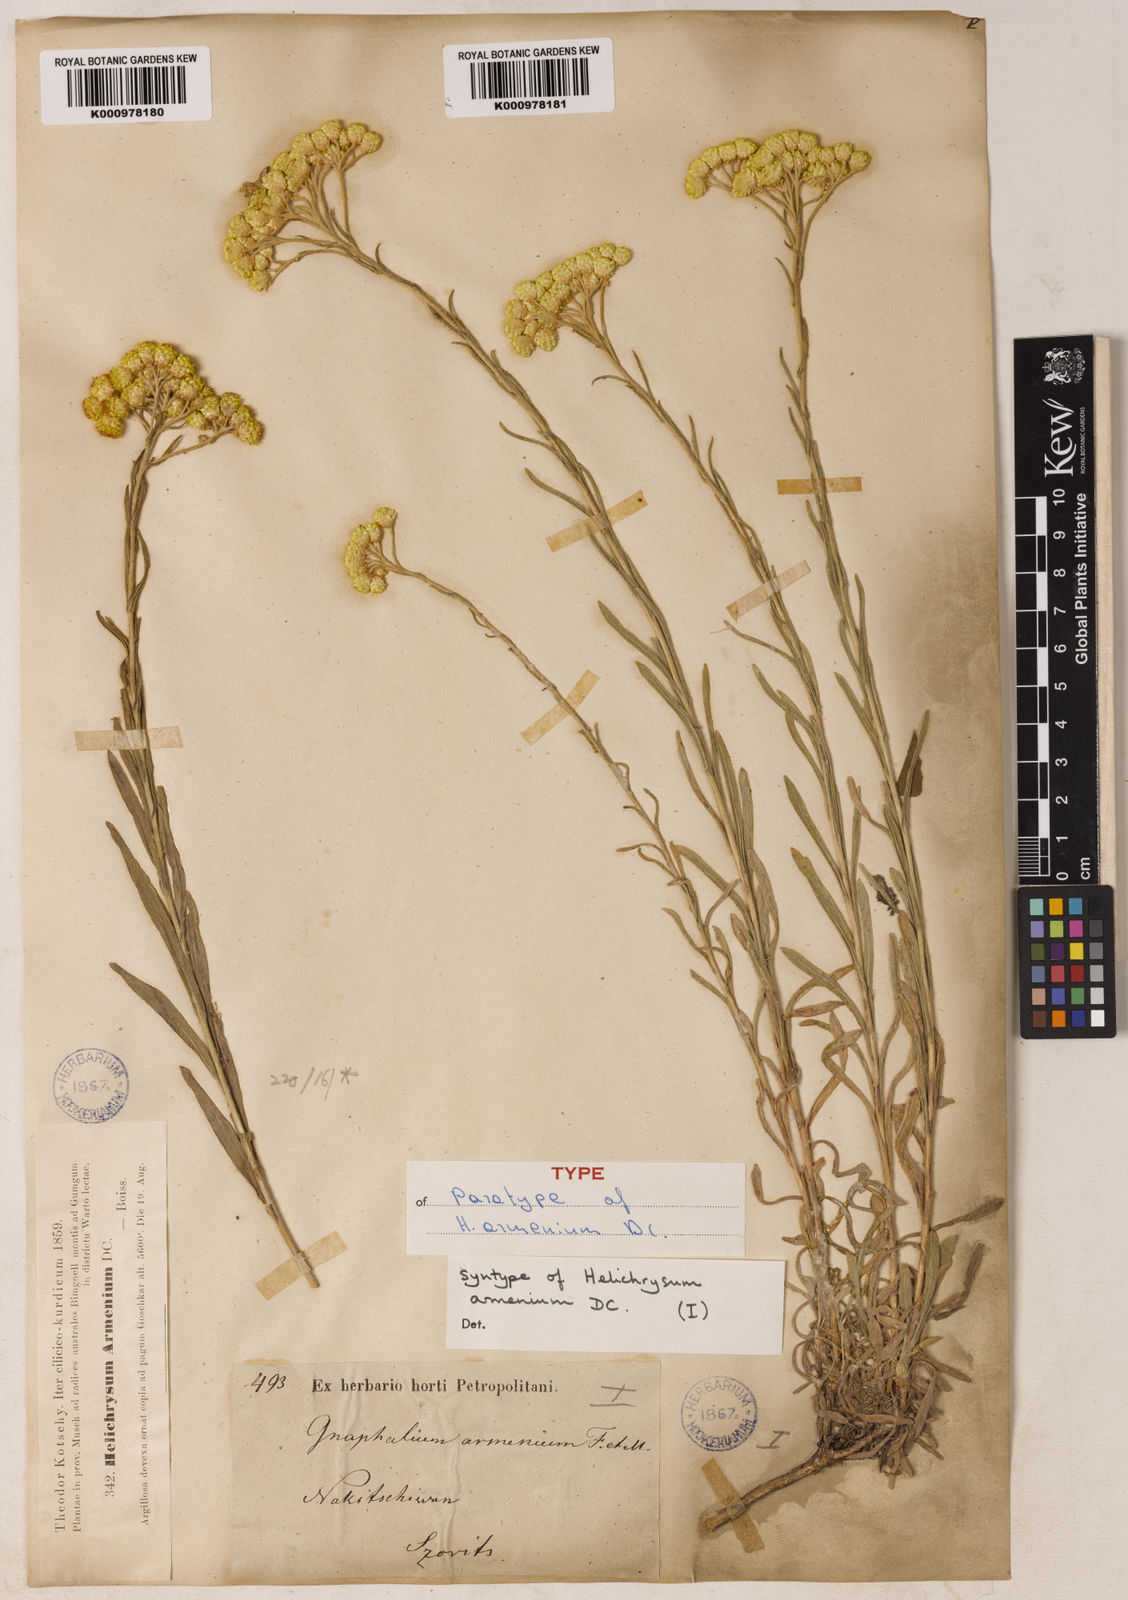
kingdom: Plantae
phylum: Tracheophyta
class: Magnoliopsida
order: Asterales
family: Asteraceae
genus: Helichrysum
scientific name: Helichrysum armenium
